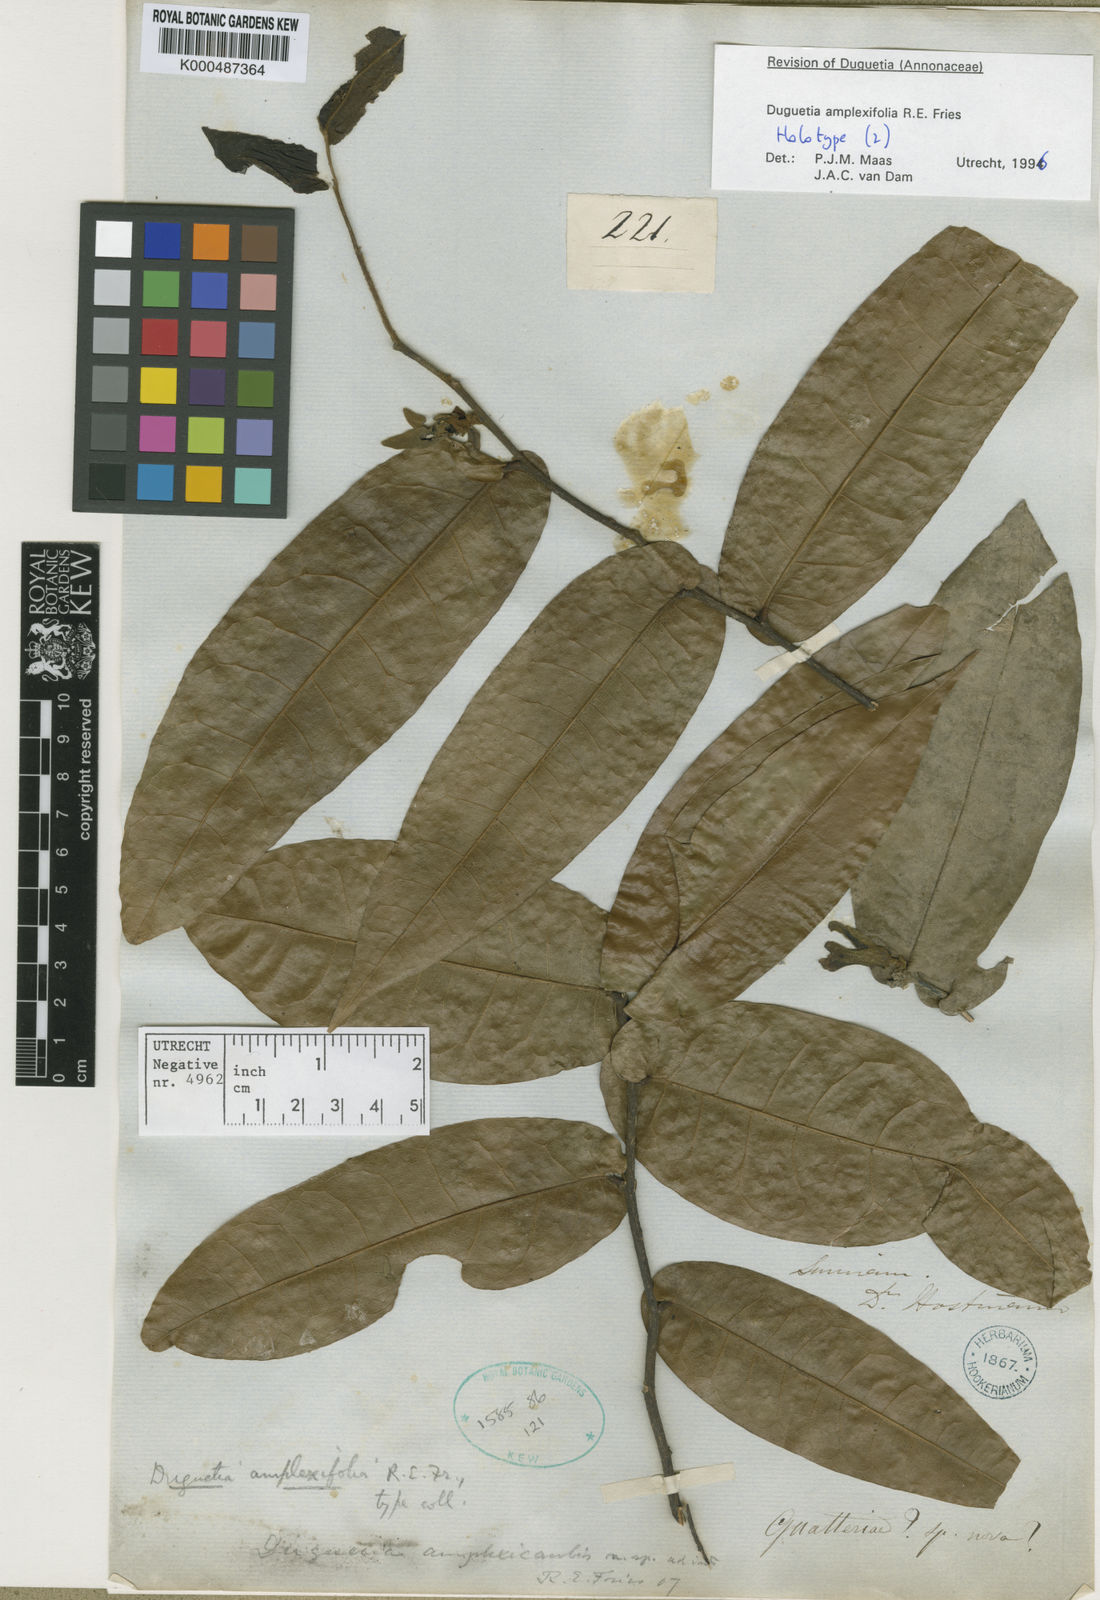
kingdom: Plantae
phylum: Tracheophyta
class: Magnoliopsida
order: Magnoliales
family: Annonaceae
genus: Duguetia
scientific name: Duguetia amplexifolia
